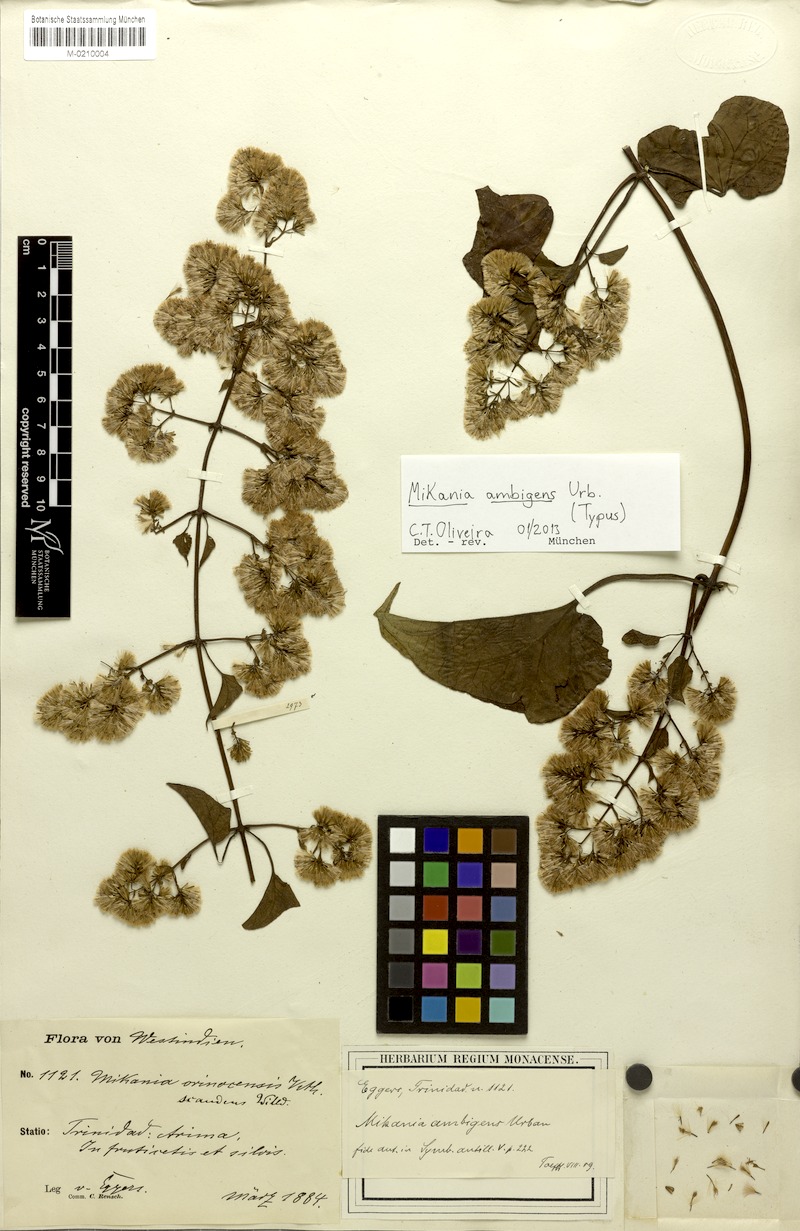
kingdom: Plantae
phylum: Tracheophyta
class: Magnoliopsida
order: Asterales
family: Asteraceae
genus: Mikania
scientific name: Mikania vitifolia
